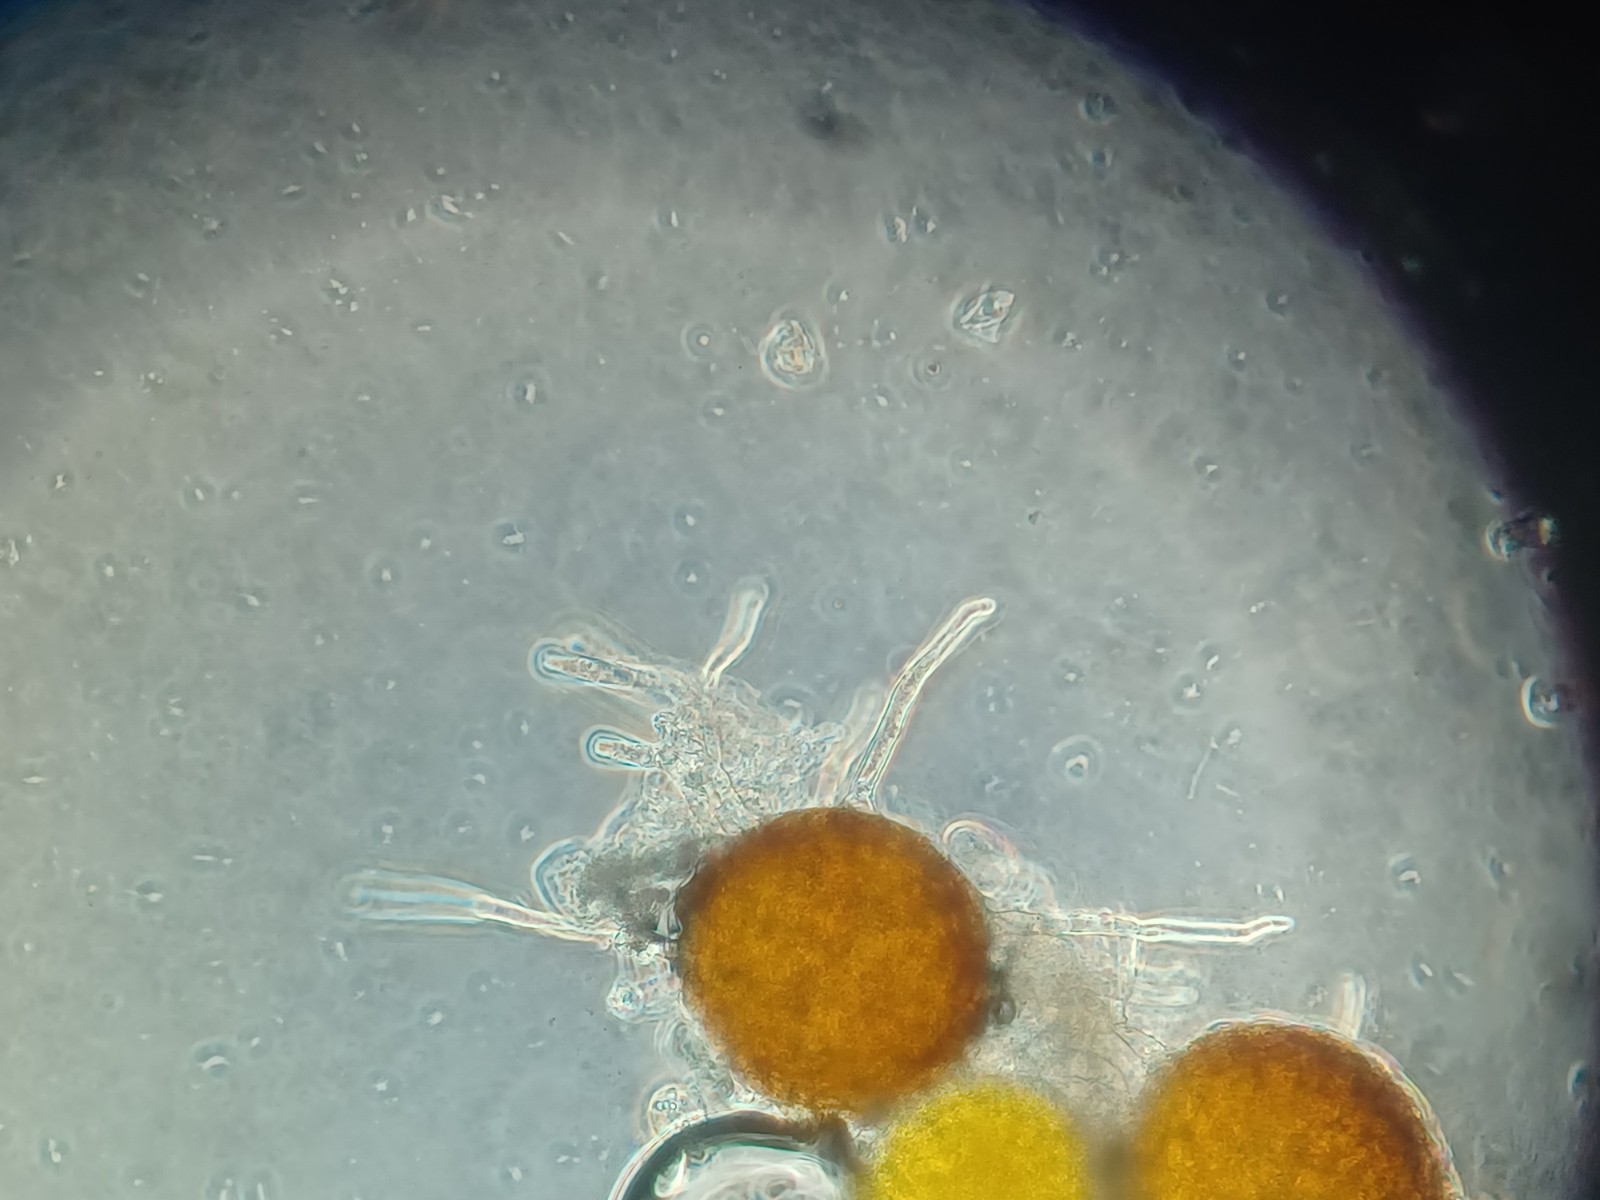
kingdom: Fungi
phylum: Ascomycota
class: Leotiomycetes
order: Helotiales
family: Erysiphaceae
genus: Erysiphe
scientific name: Erysiphe trifoliorum
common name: kløver-meldug
